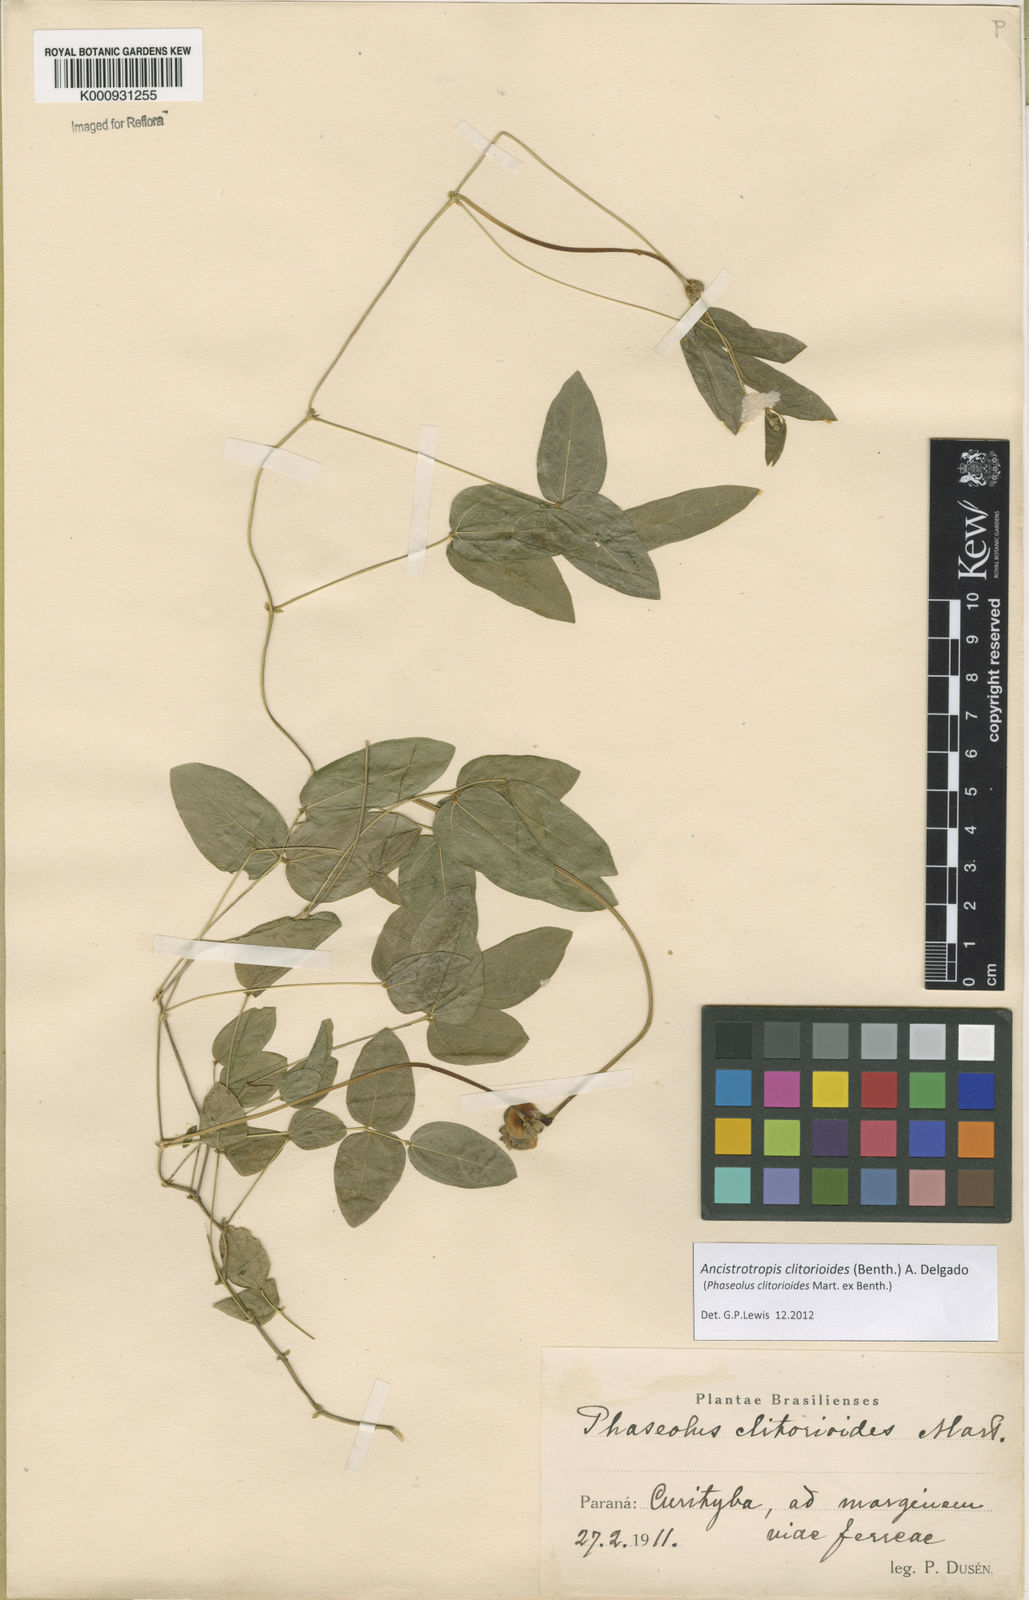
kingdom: Plantae
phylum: Tracheophyta
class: Magnoliopsida
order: Fabales
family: Fabaceae
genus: Ancistrotropis
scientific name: Ancistrotropis clitorioides
